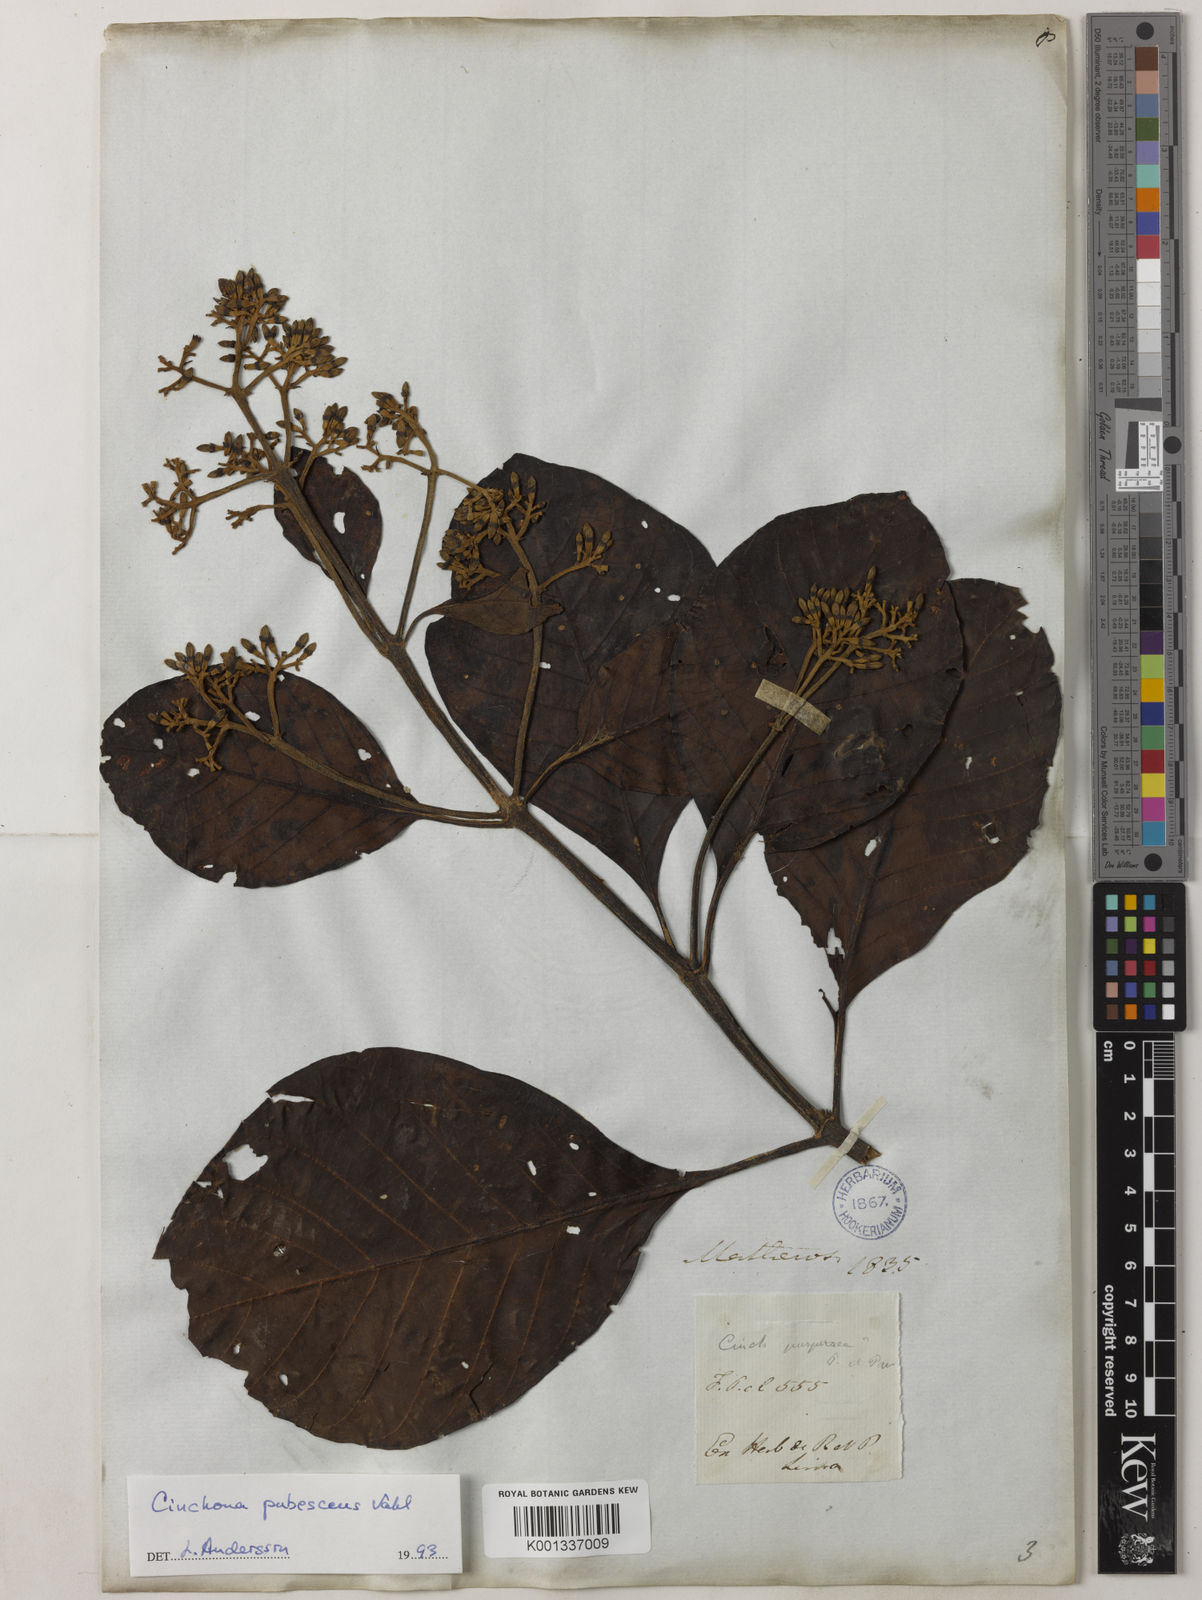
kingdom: Plantae
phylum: Tracheophyta
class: Magnoliopsida
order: Gentianales
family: Rubiaceae
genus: Cinchona
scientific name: Cinchona pubescens
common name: Quinine
